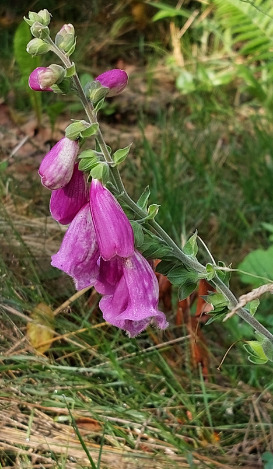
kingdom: Plantae
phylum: Tracheophyta
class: Magnoliopsida
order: Lamiales
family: Plantaginaceae
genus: Digitalis
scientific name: Digitalis purpurea
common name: Almindelig fingerbøl
